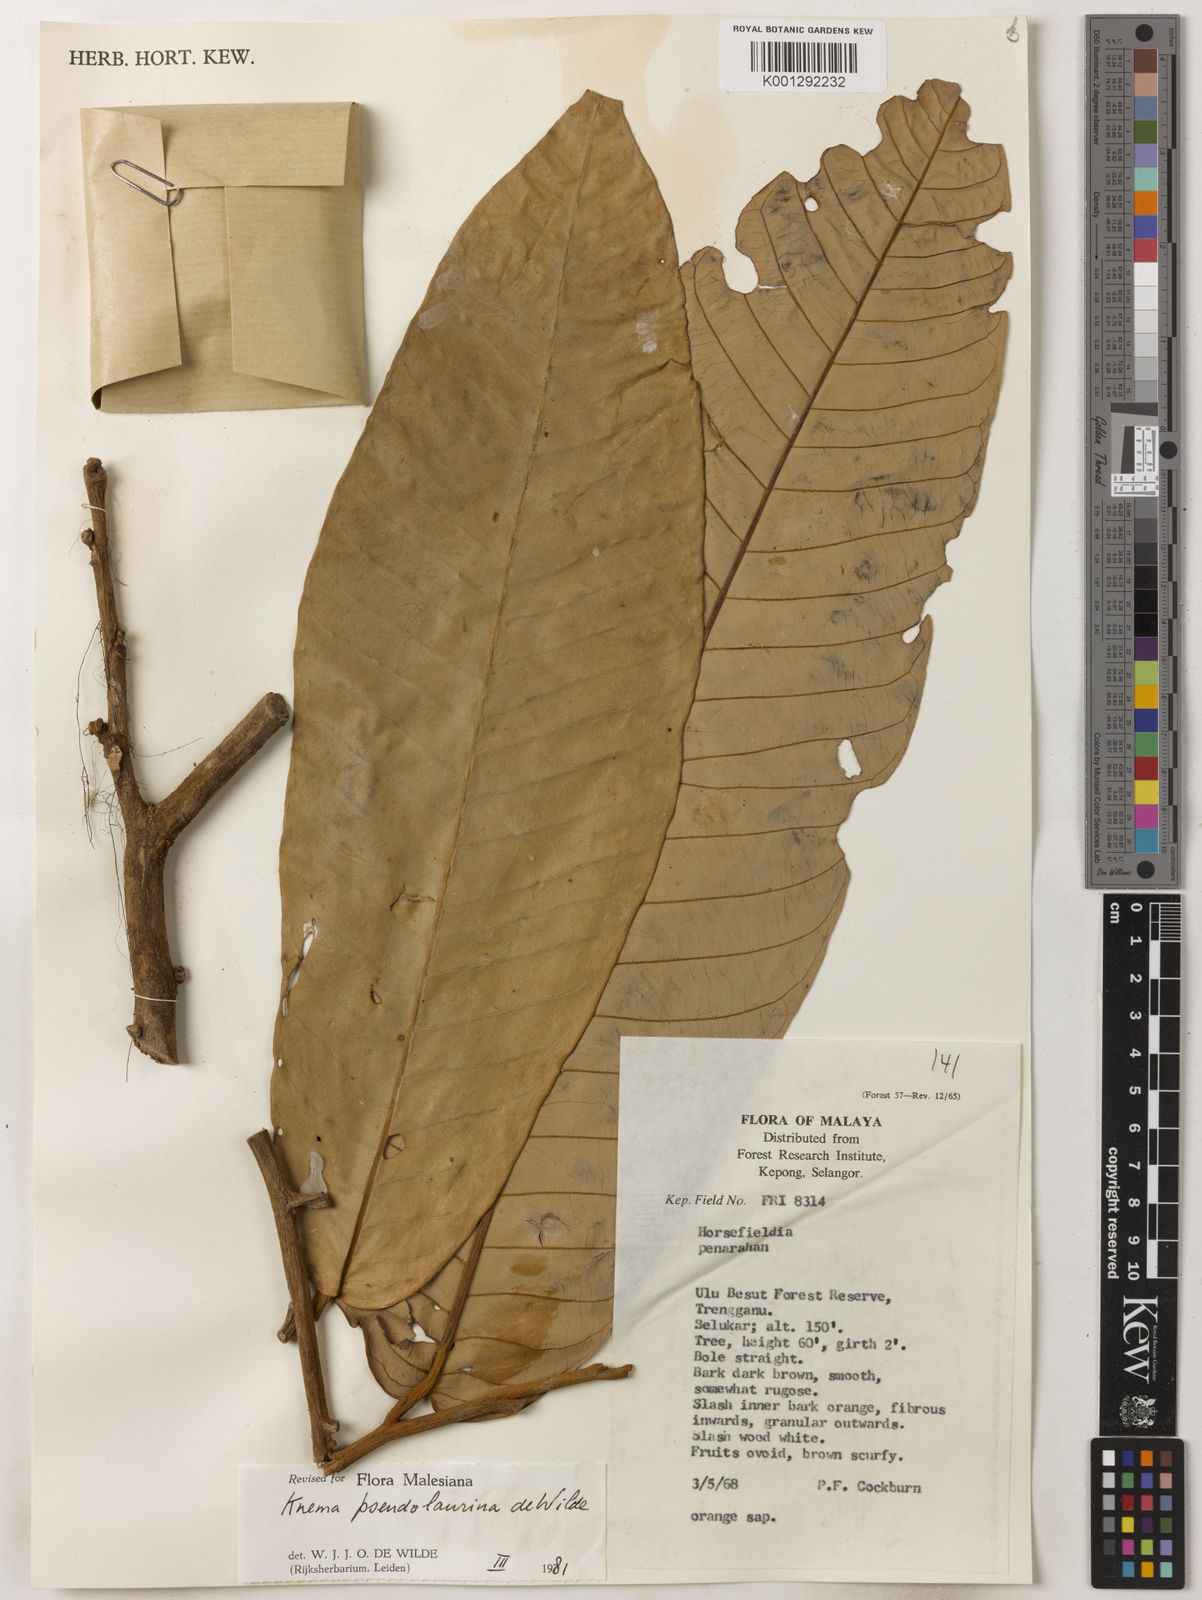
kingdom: Plantae
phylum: Tracheophyta
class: Magnoliopsida
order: Magnoliales
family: Myristicaceae
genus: Knema
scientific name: Knema pseudolaurina
